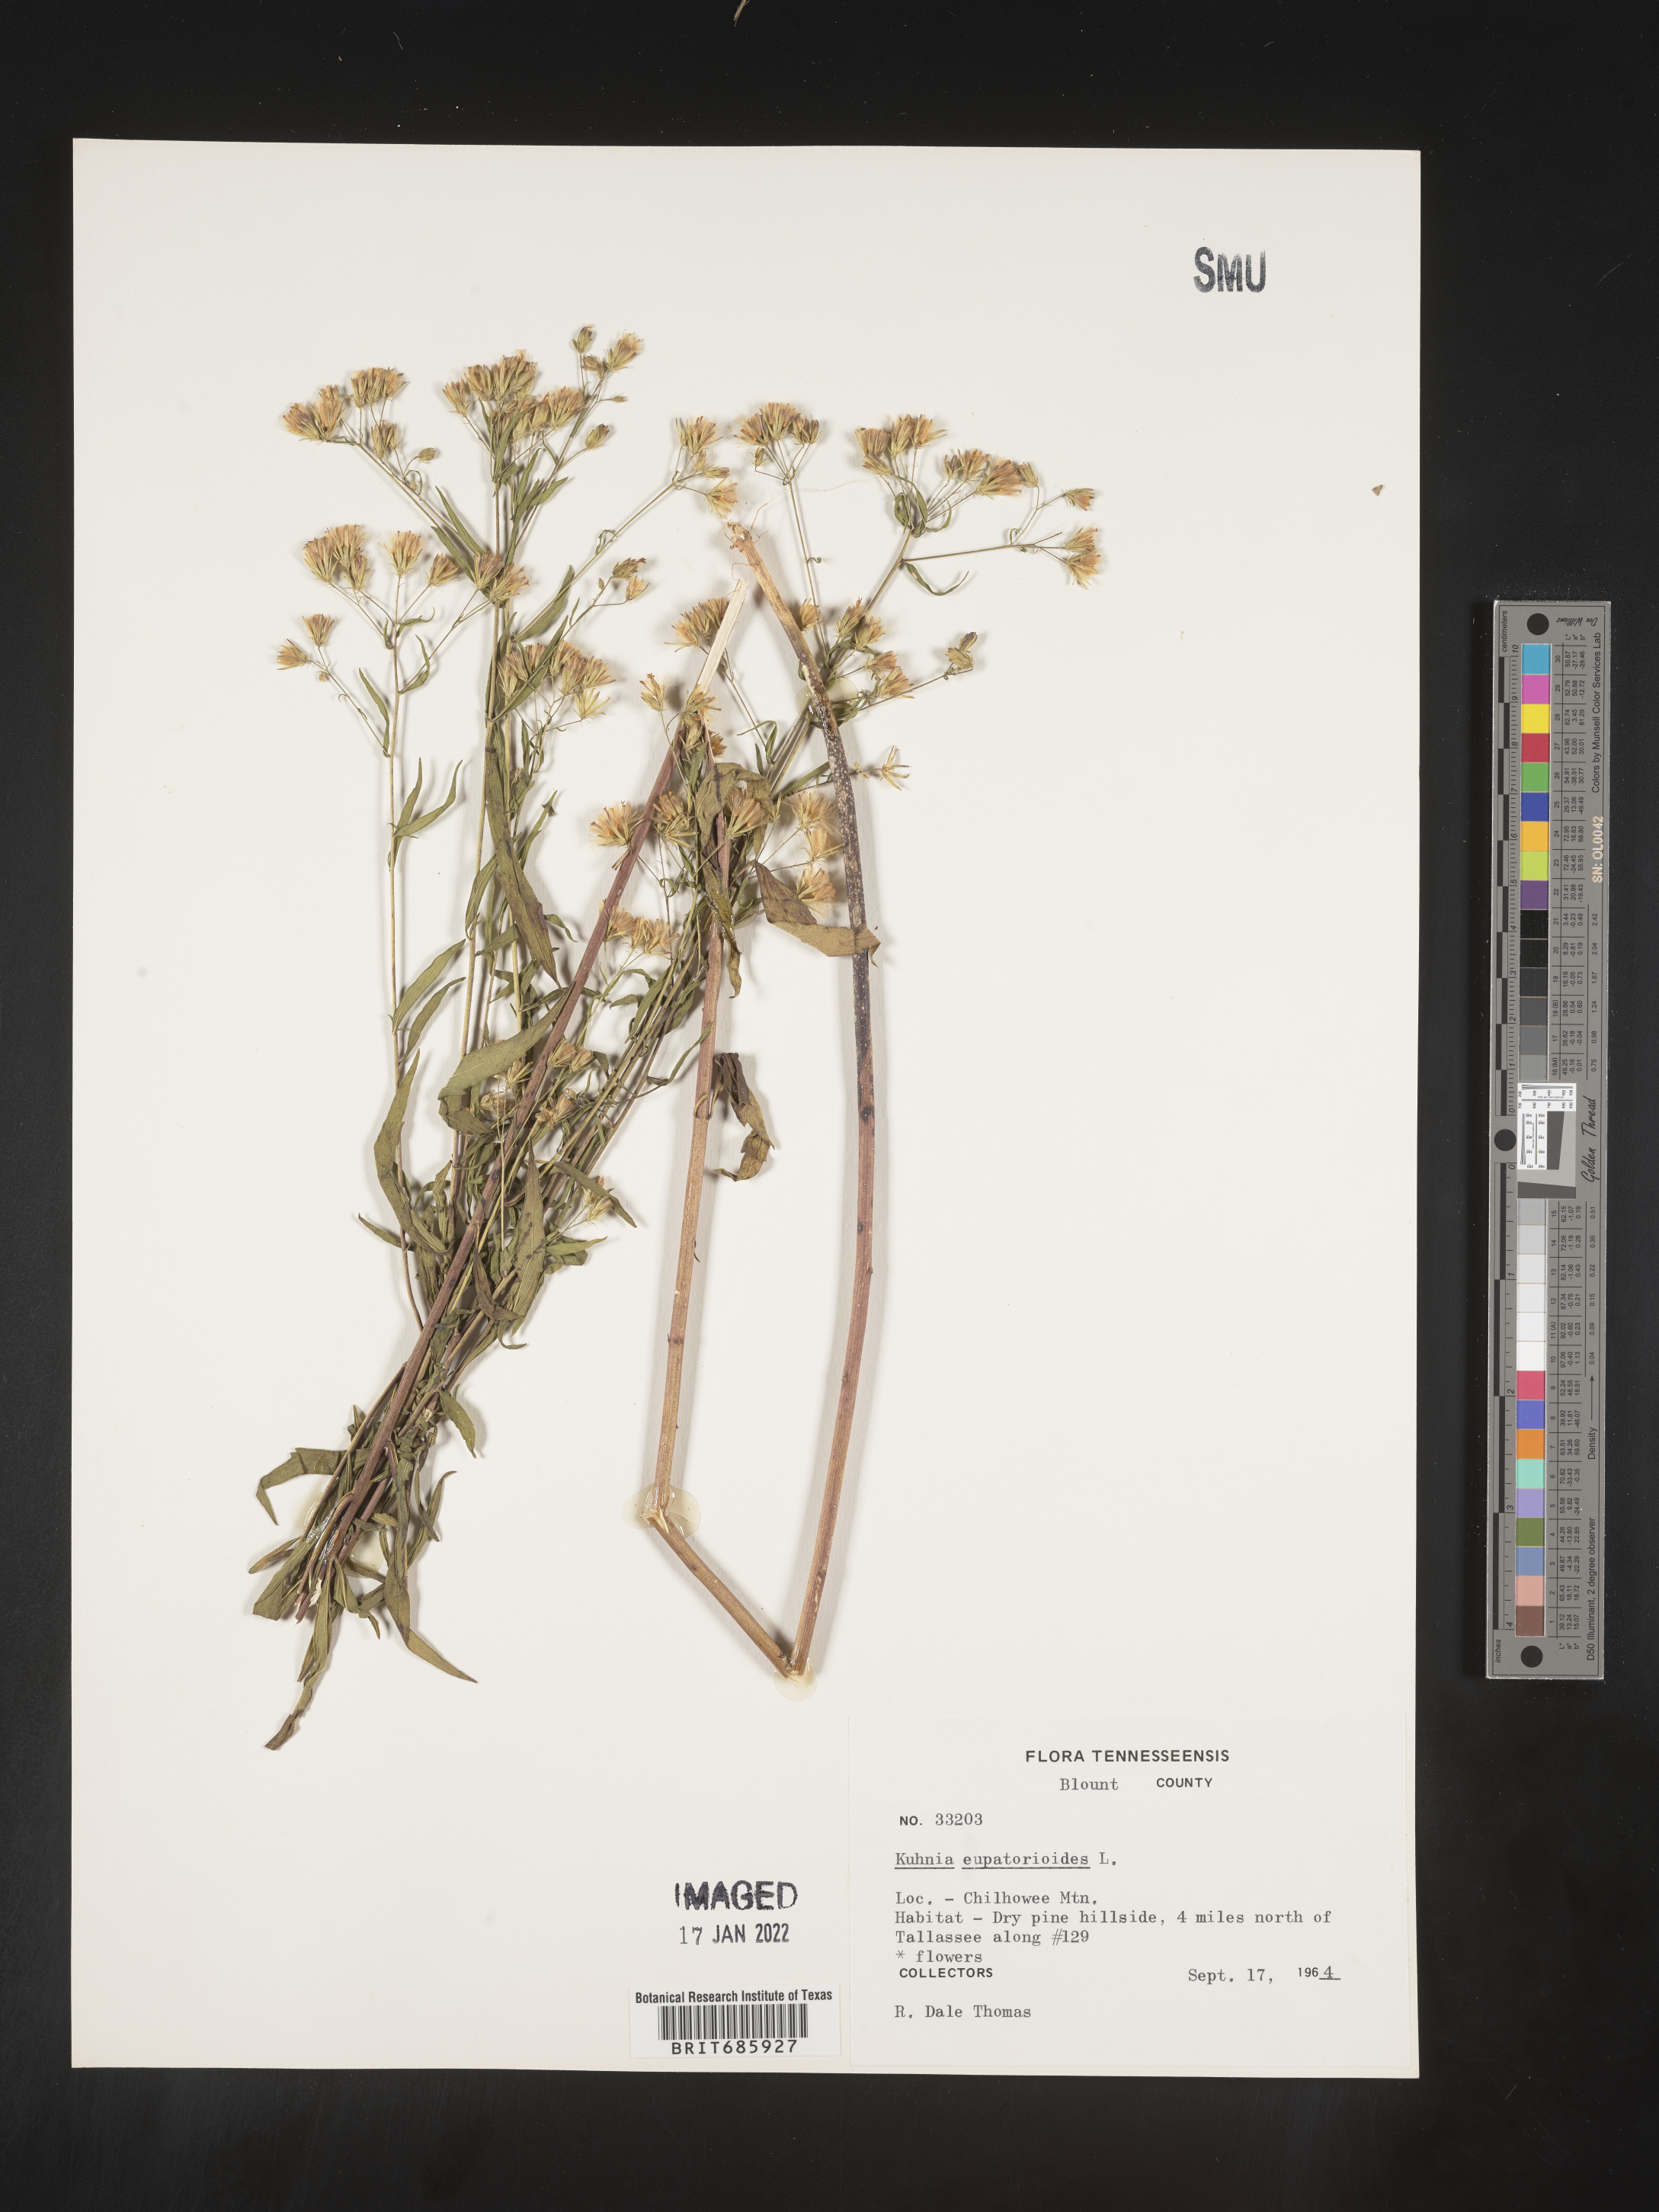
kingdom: Plantae
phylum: Tracheophyta
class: Magnoliopsida
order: Asterales
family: Asteraceae
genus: Brickellia
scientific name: Brickellia eupatorioides
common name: False boneset
